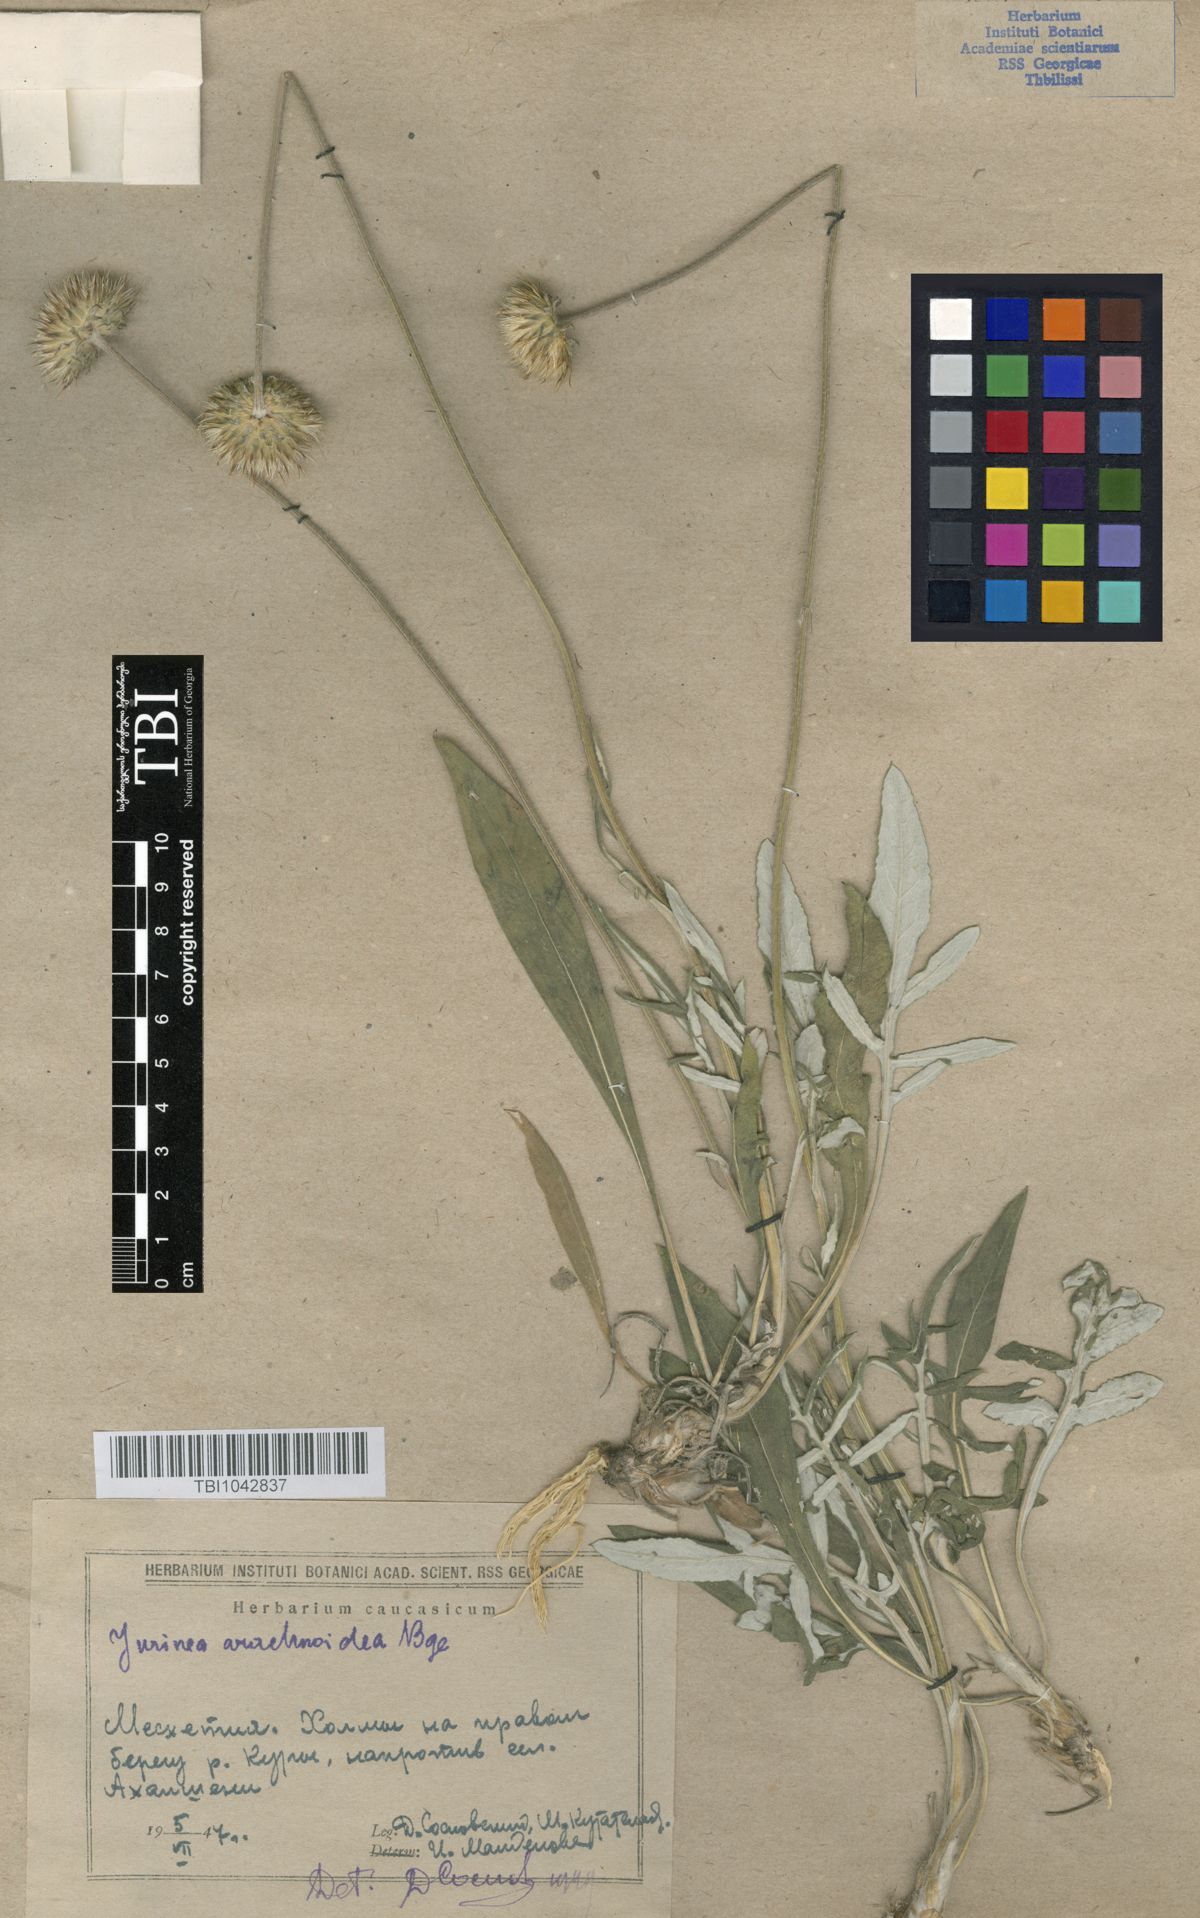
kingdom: Plantae
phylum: Tracheophyta
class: Magnoliopsida
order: Asterales
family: Asteraceae
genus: Jurinea
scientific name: Jurinea blanda
